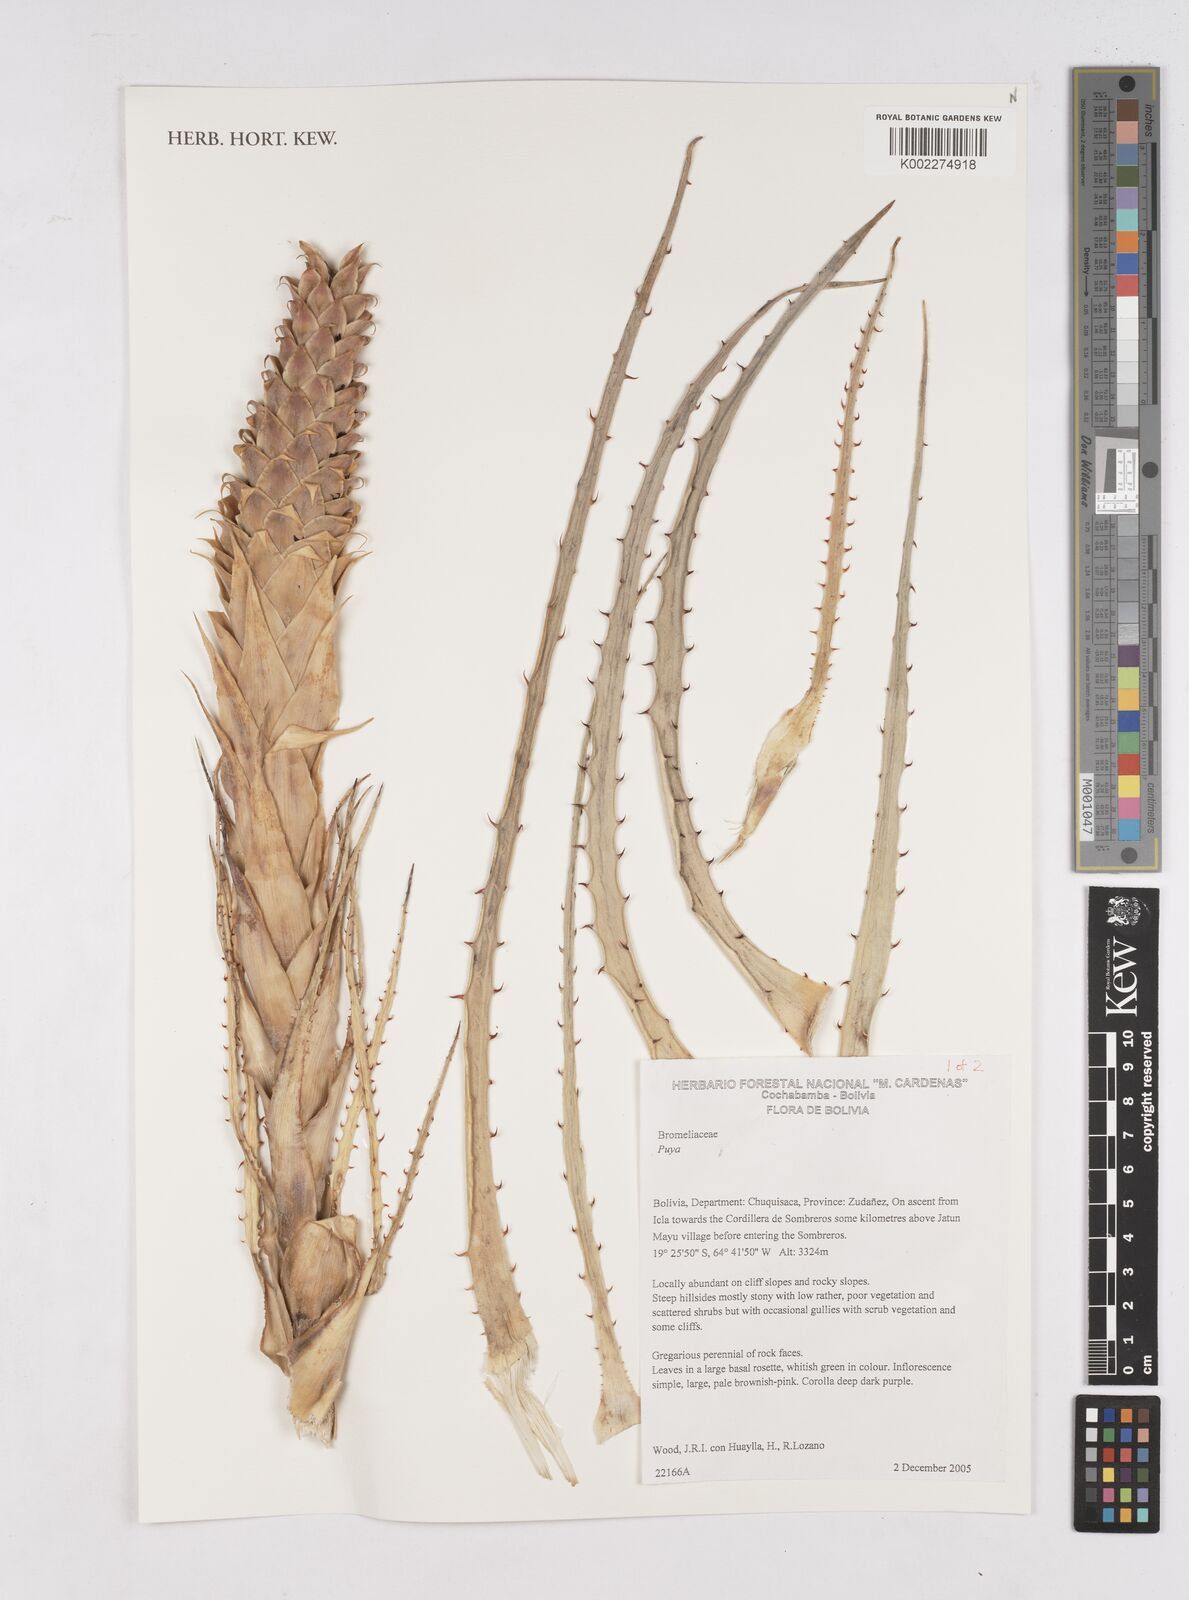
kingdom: Plantae
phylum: Tracheophyta
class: Liliopsida
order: Poales
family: Bromeliaceae
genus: Puya
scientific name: Puya
